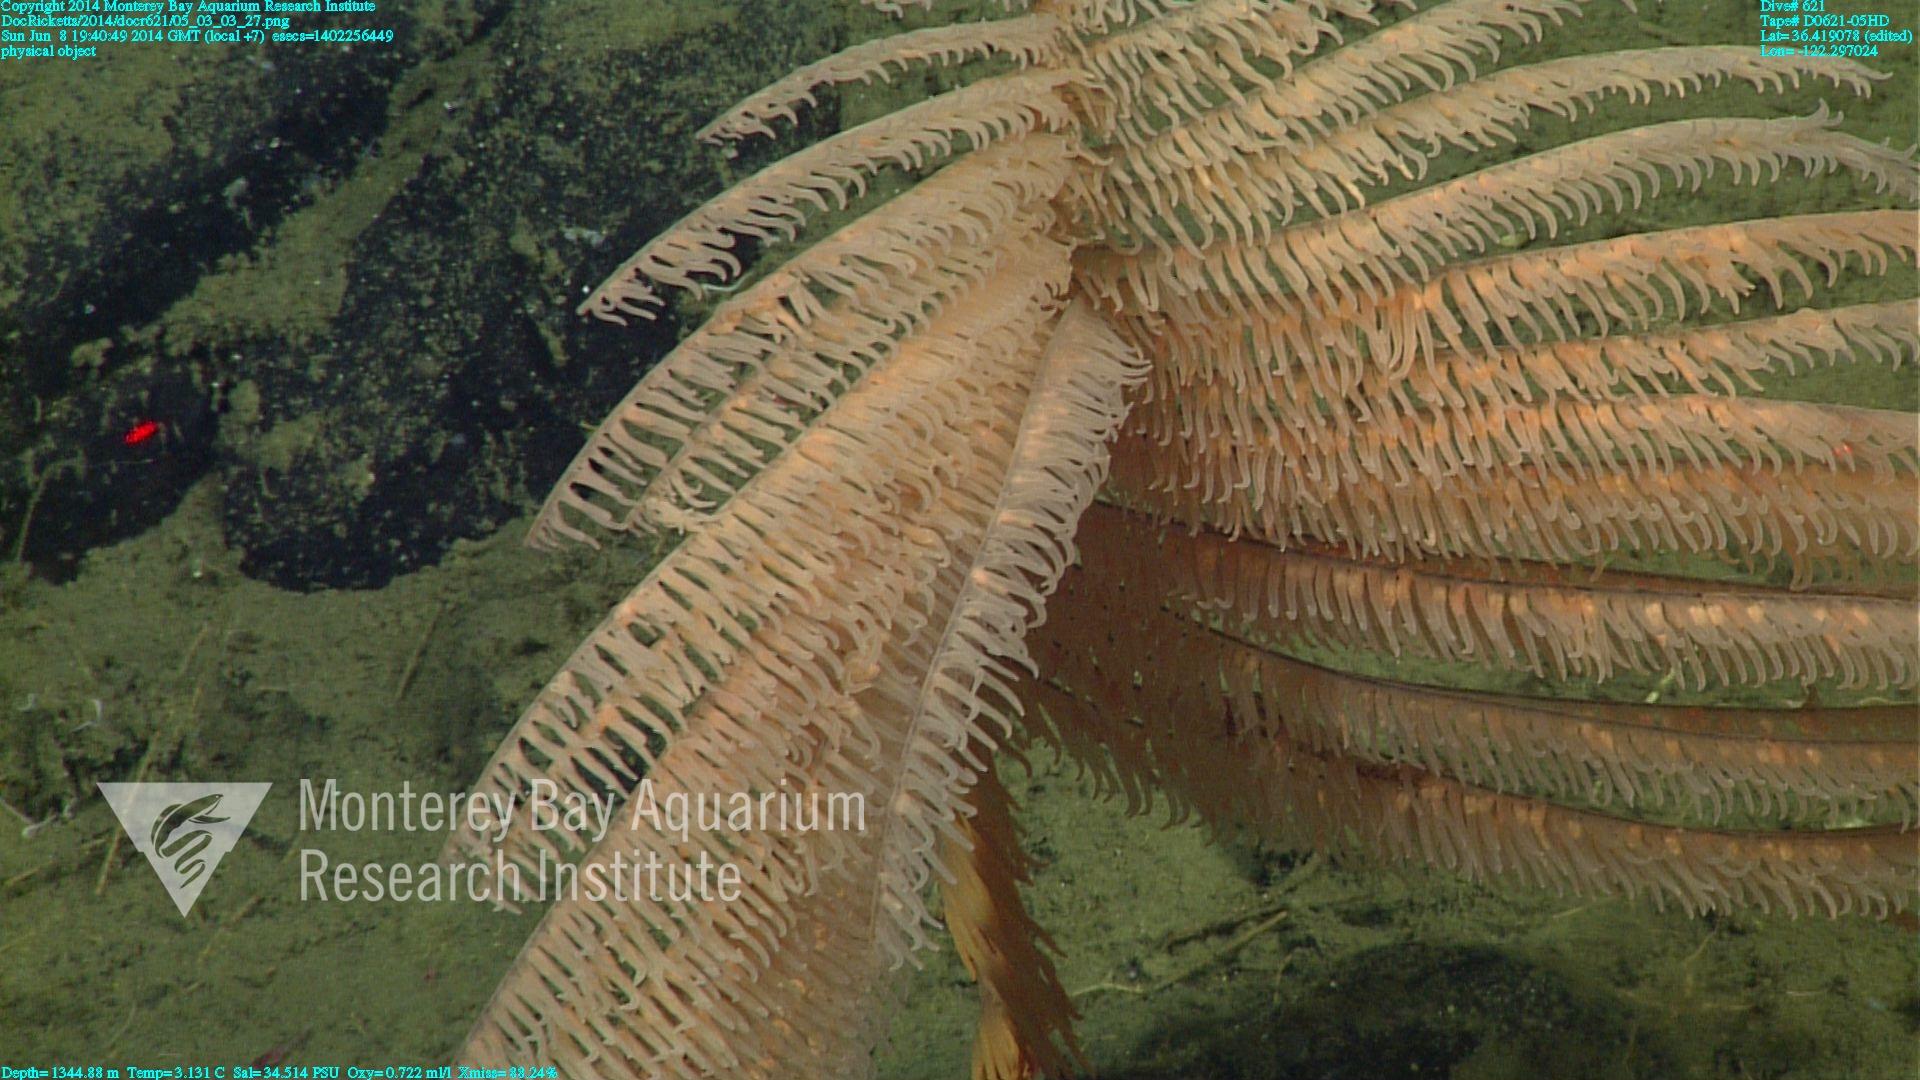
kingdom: Animalia
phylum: Cnidaria
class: Anthozoa
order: Antipatharia
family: Schizopathidae
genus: Bathypathes
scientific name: Bathypathes
